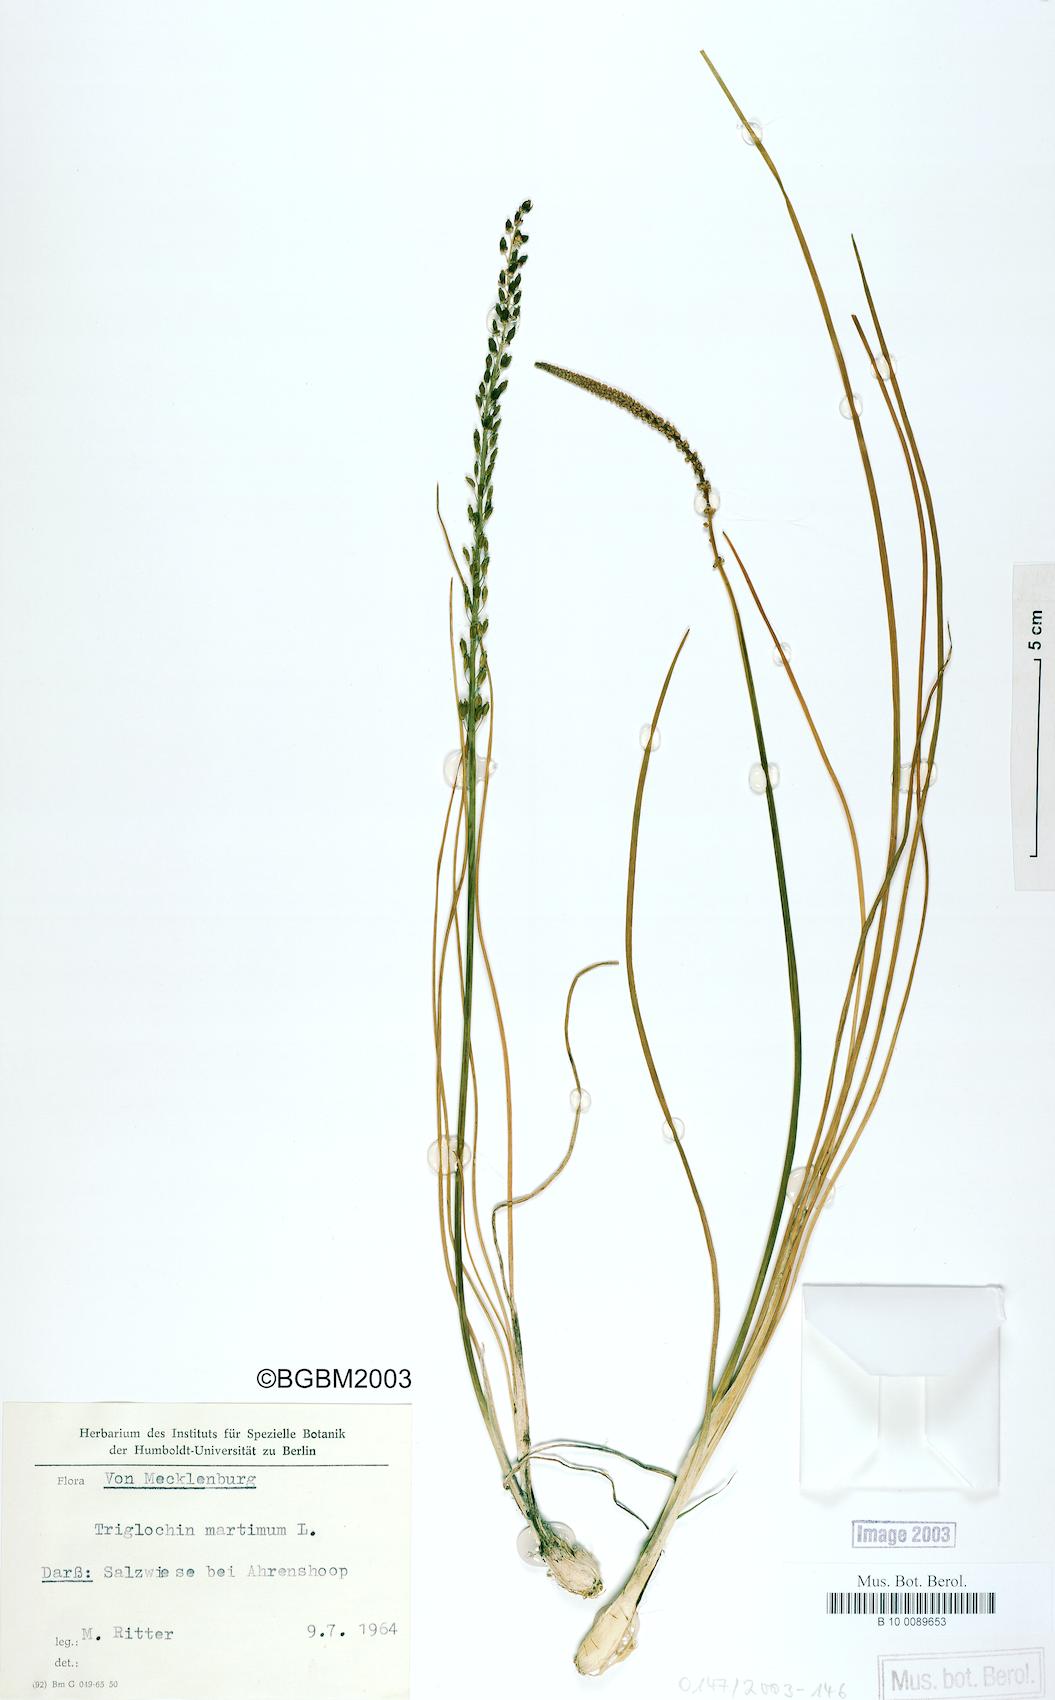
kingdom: Plantae
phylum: Tracheophyta
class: Liliopsida
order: Alismatales
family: Juncaginaceae
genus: Triglochin
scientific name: Triglochin maritima
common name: Sea arrowgrass
